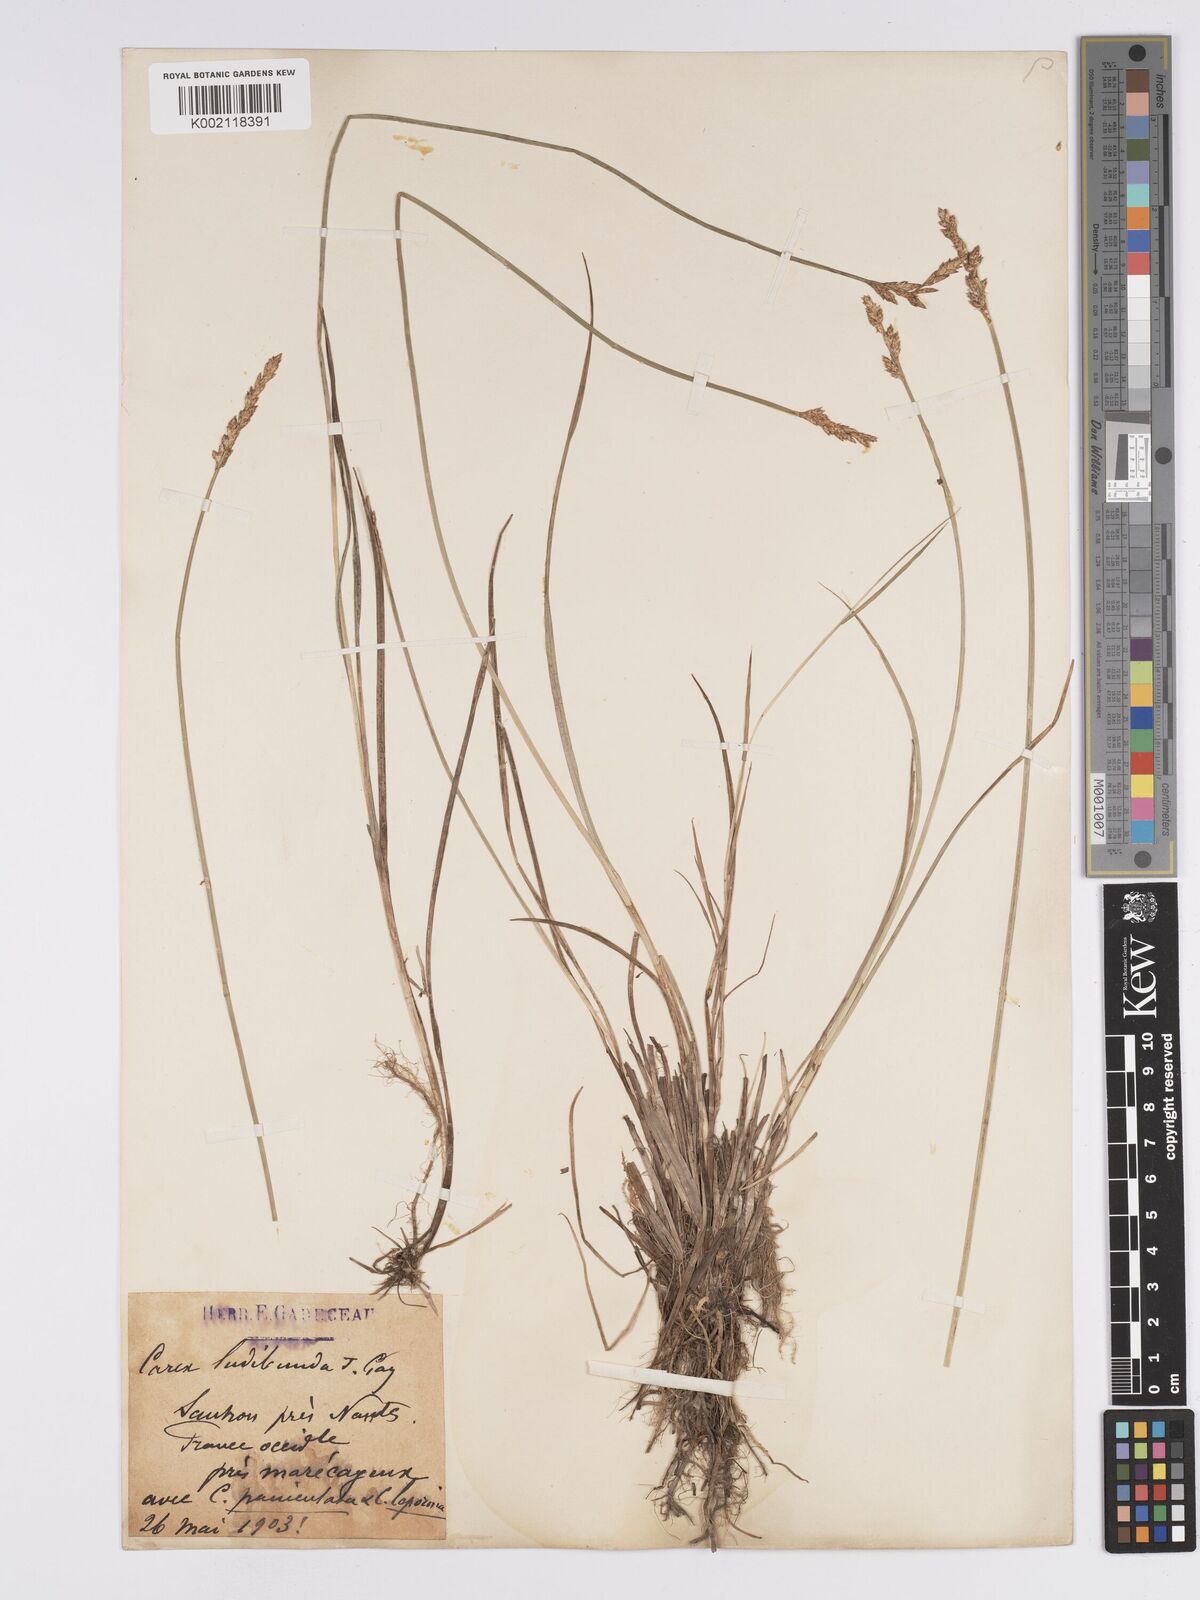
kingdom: Plantae
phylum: Tracheophyta
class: Liliopsida
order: Poales
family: Cyperaceae
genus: Carex
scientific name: Carex paniculata
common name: Greater tussock-sedge
